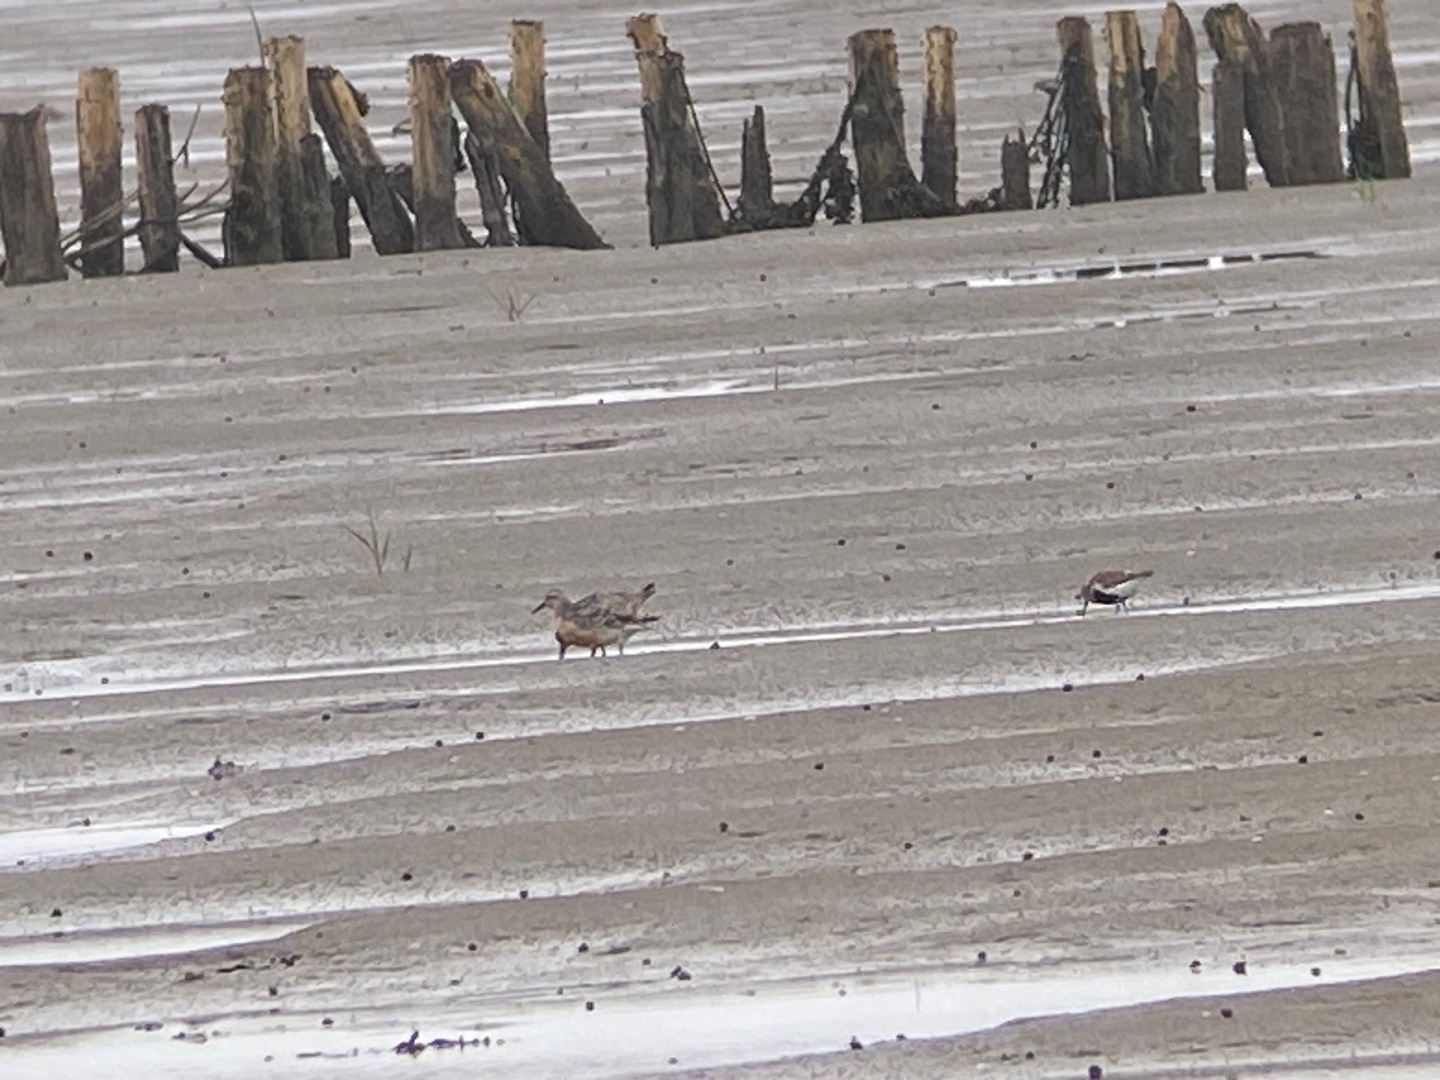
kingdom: Animalia
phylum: Chordata
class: Aves
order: Charadriiformes
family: Scolopacidae
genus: Calidris
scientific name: Calidris canutus
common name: Islandsk ryle
